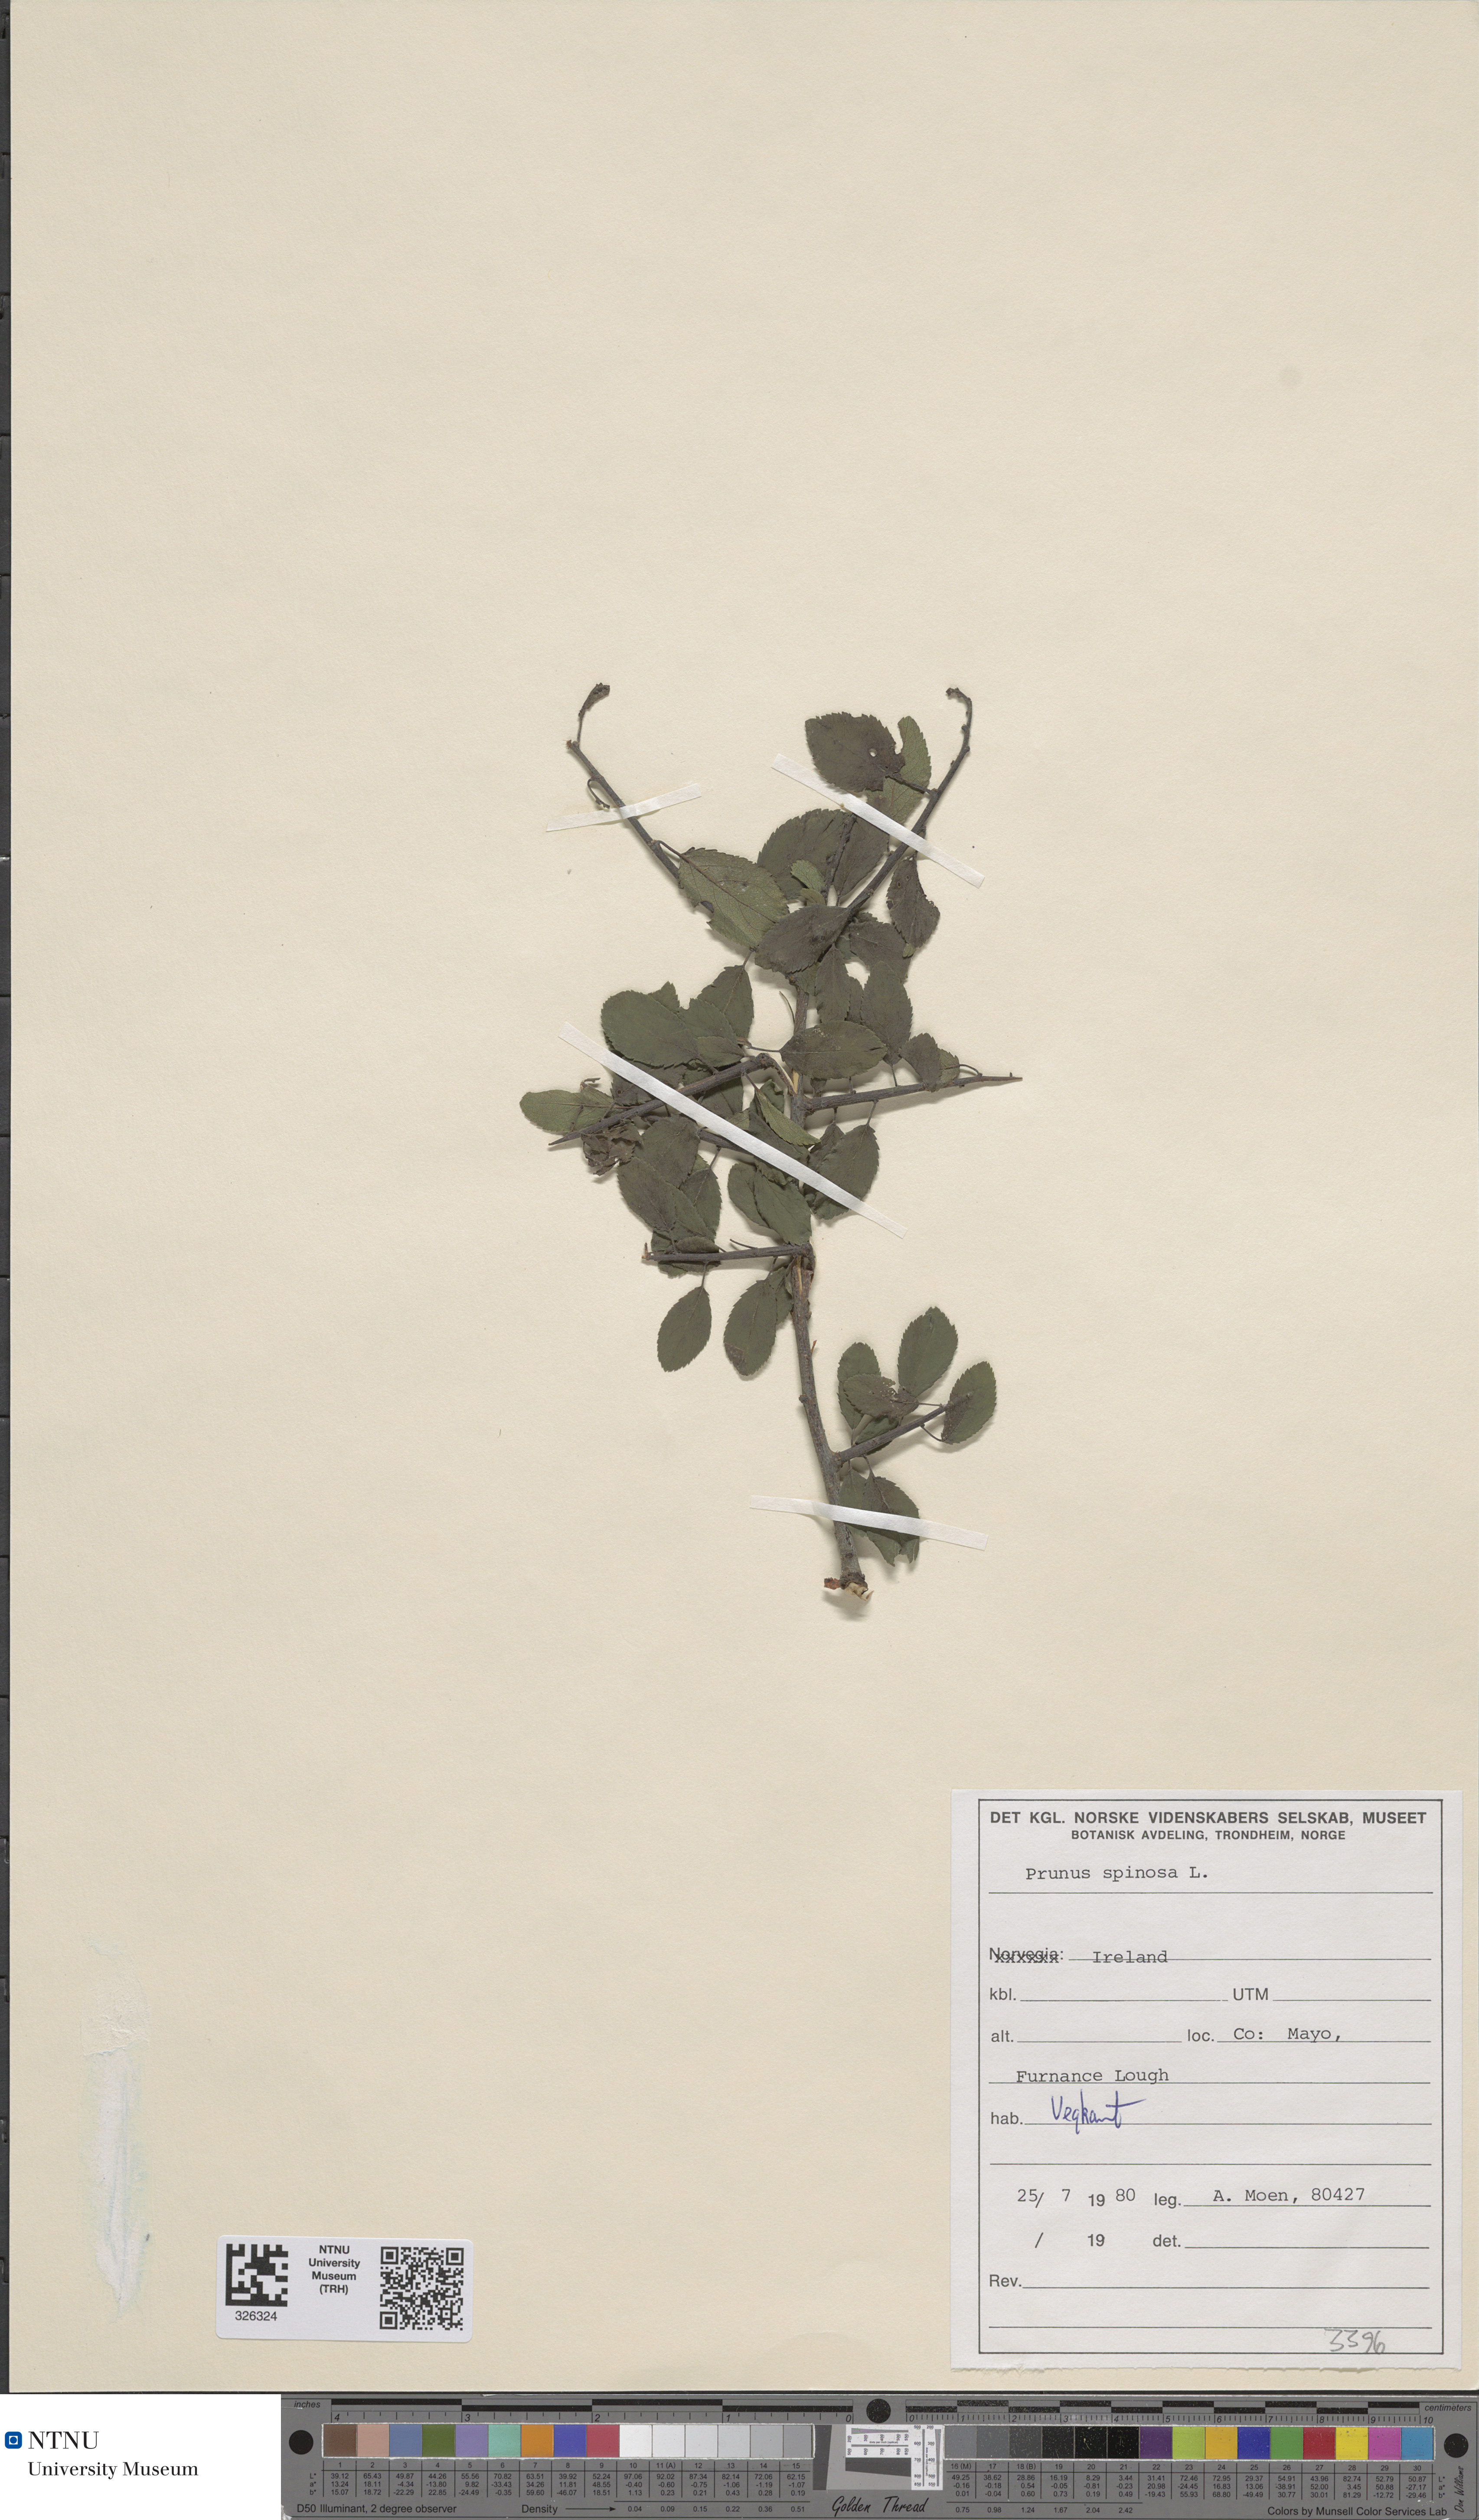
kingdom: Plantae
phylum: Tracheophyta
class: Magnoliopsida
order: Rosales
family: Rosaceae
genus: Prunus
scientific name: Prunus spinosa
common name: Blackthorn
